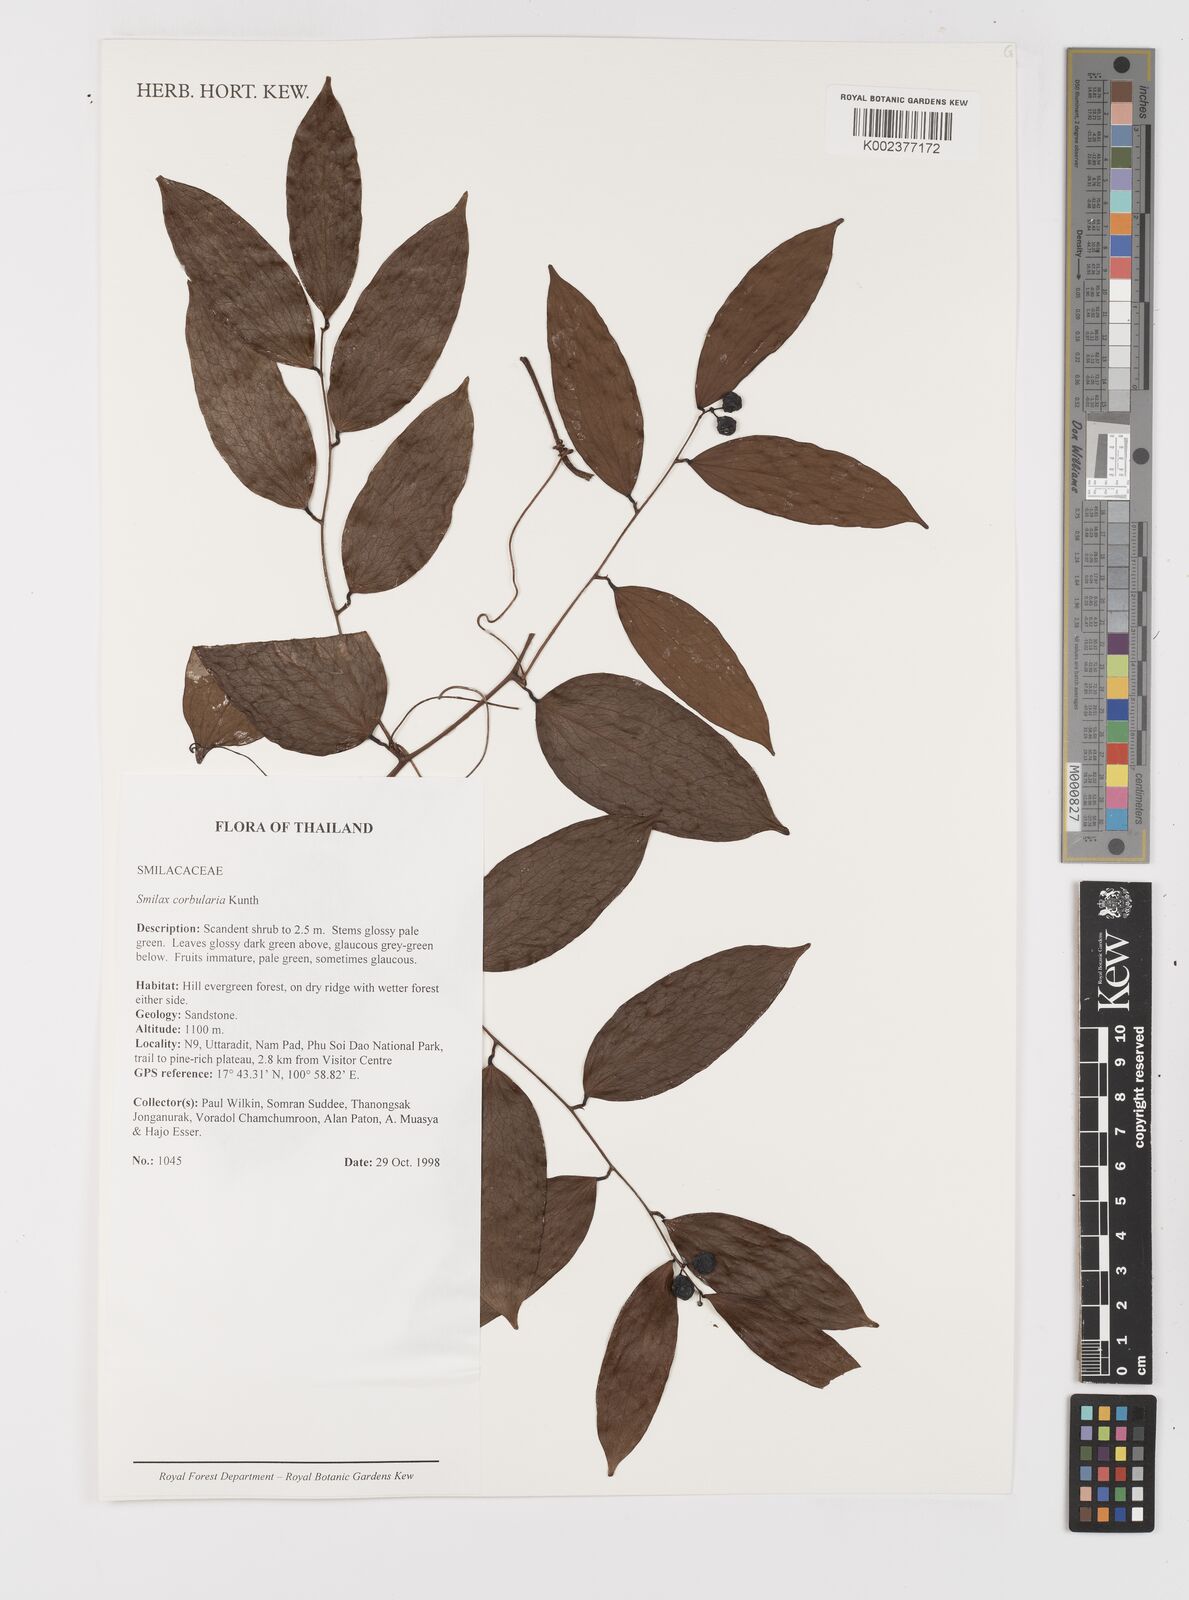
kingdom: Plantae
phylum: Tracheophyta
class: Liliopsida
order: Liliales
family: Smilacaceae
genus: Smilax
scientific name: Smilax corbularia
